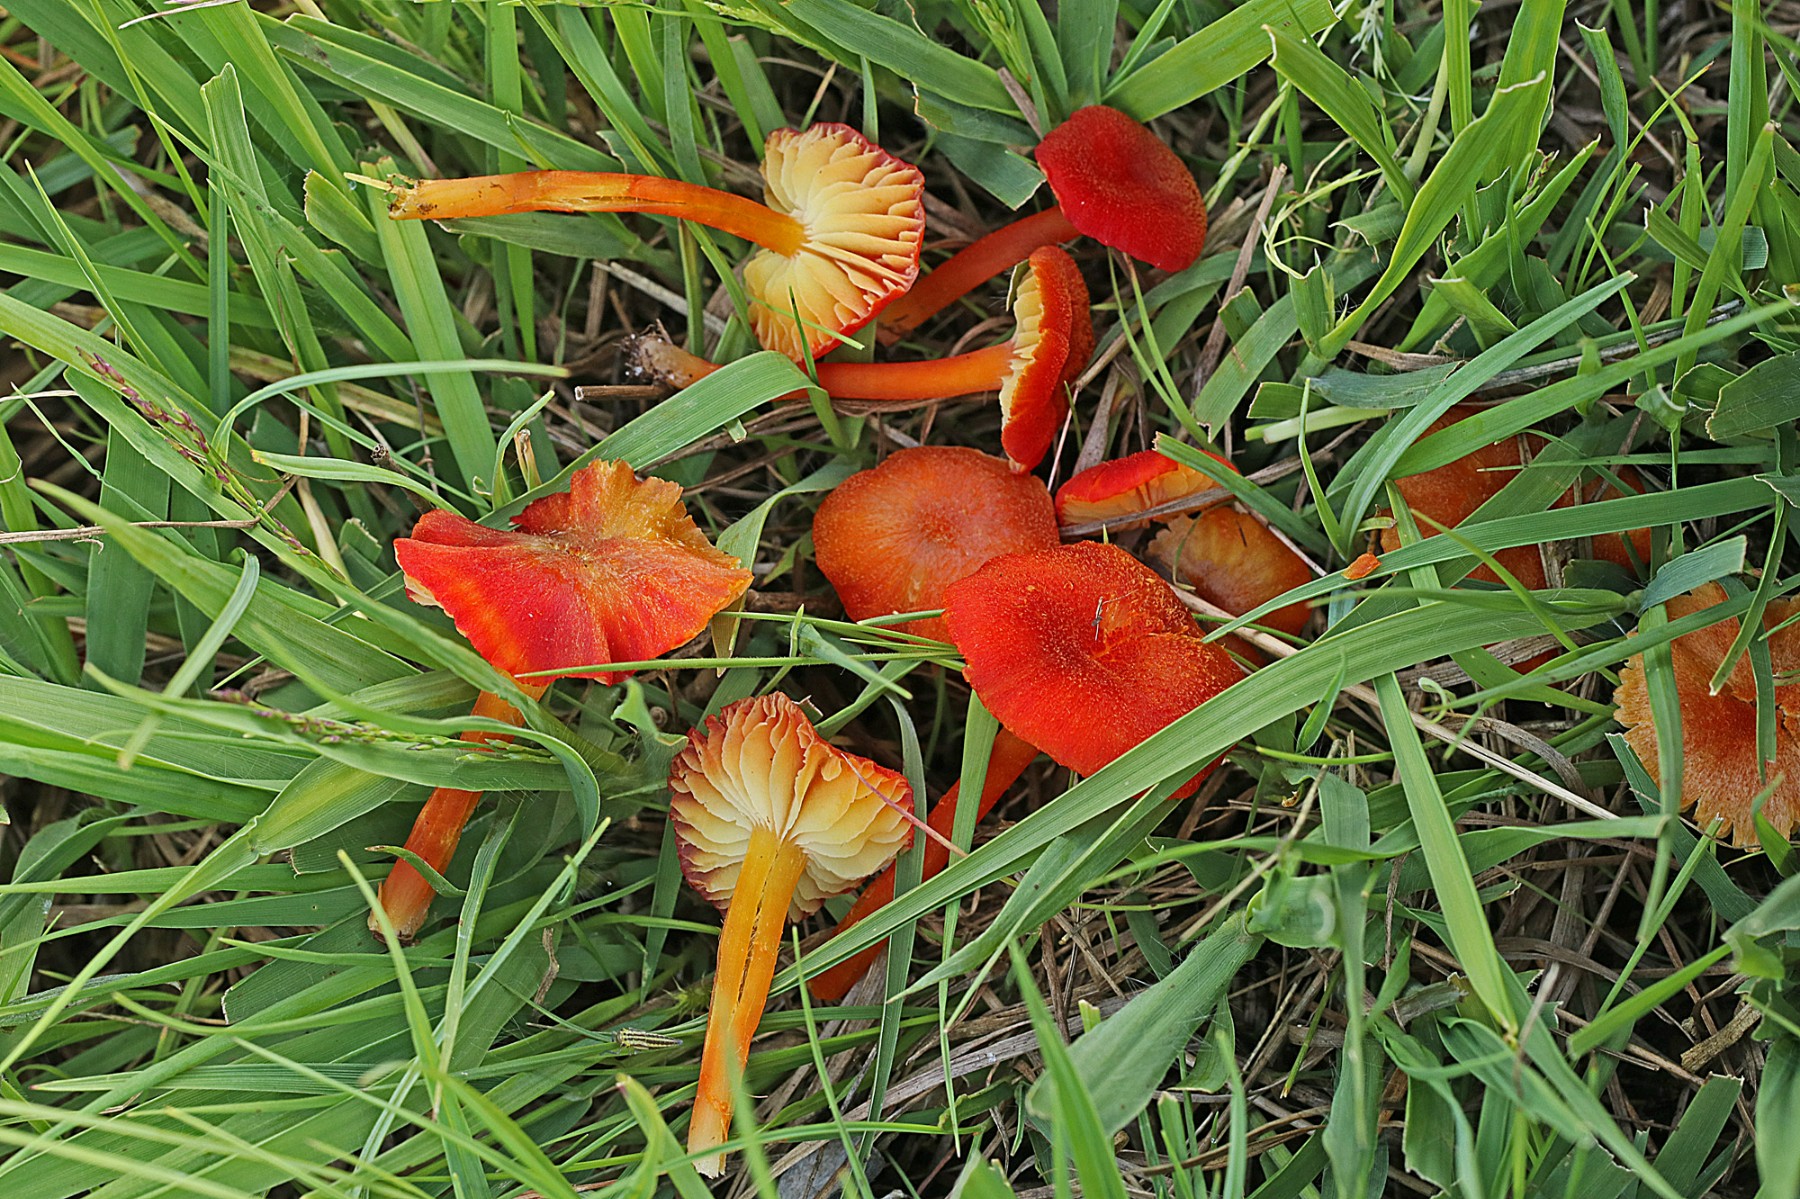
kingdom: Fungi
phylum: Basidiomycota
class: Agaricomycetes
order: Agaricales
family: Hygrophoraceae
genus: Hygrocybe
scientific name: Hygrocybe helobia
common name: hvidløgs-vokshat
